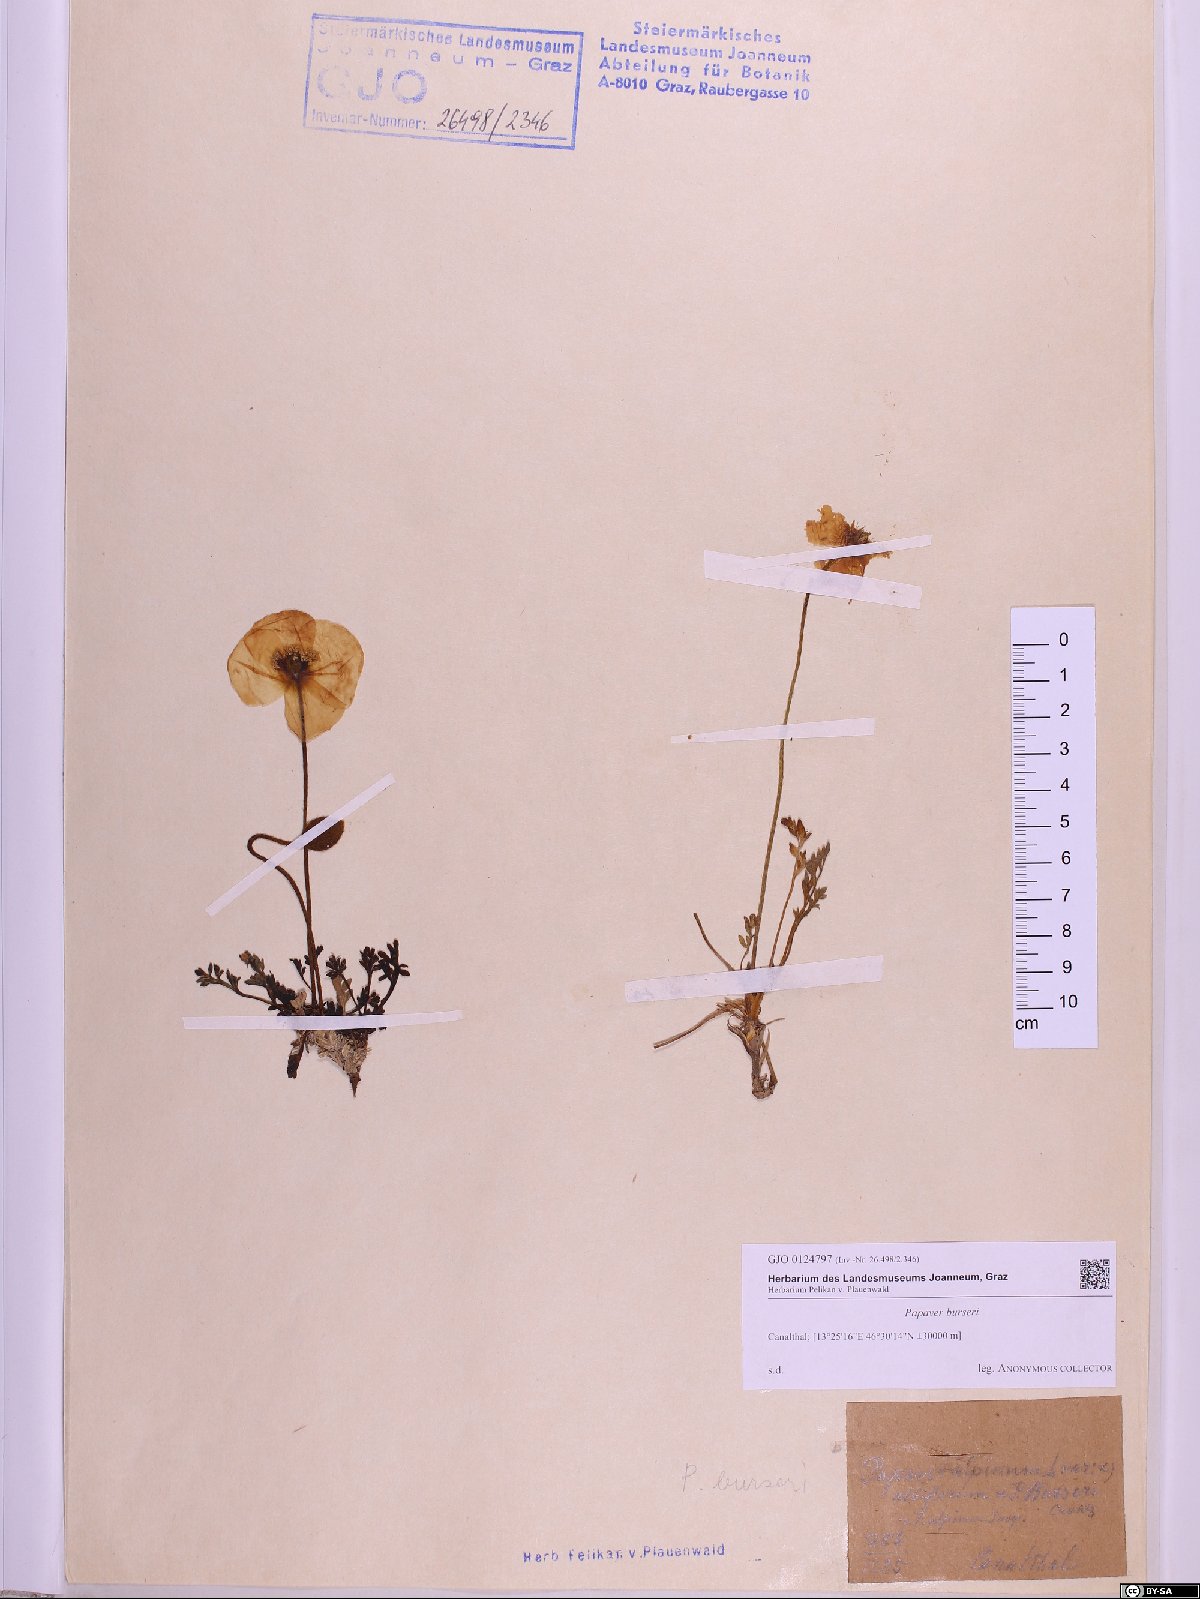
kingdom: Plantae
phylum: Tracheophyta
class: Magnoliopsida
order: Ranunculales
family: Papaveraceae
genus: Papaver
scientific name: Papaver alpinum
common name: Austrian poppy
